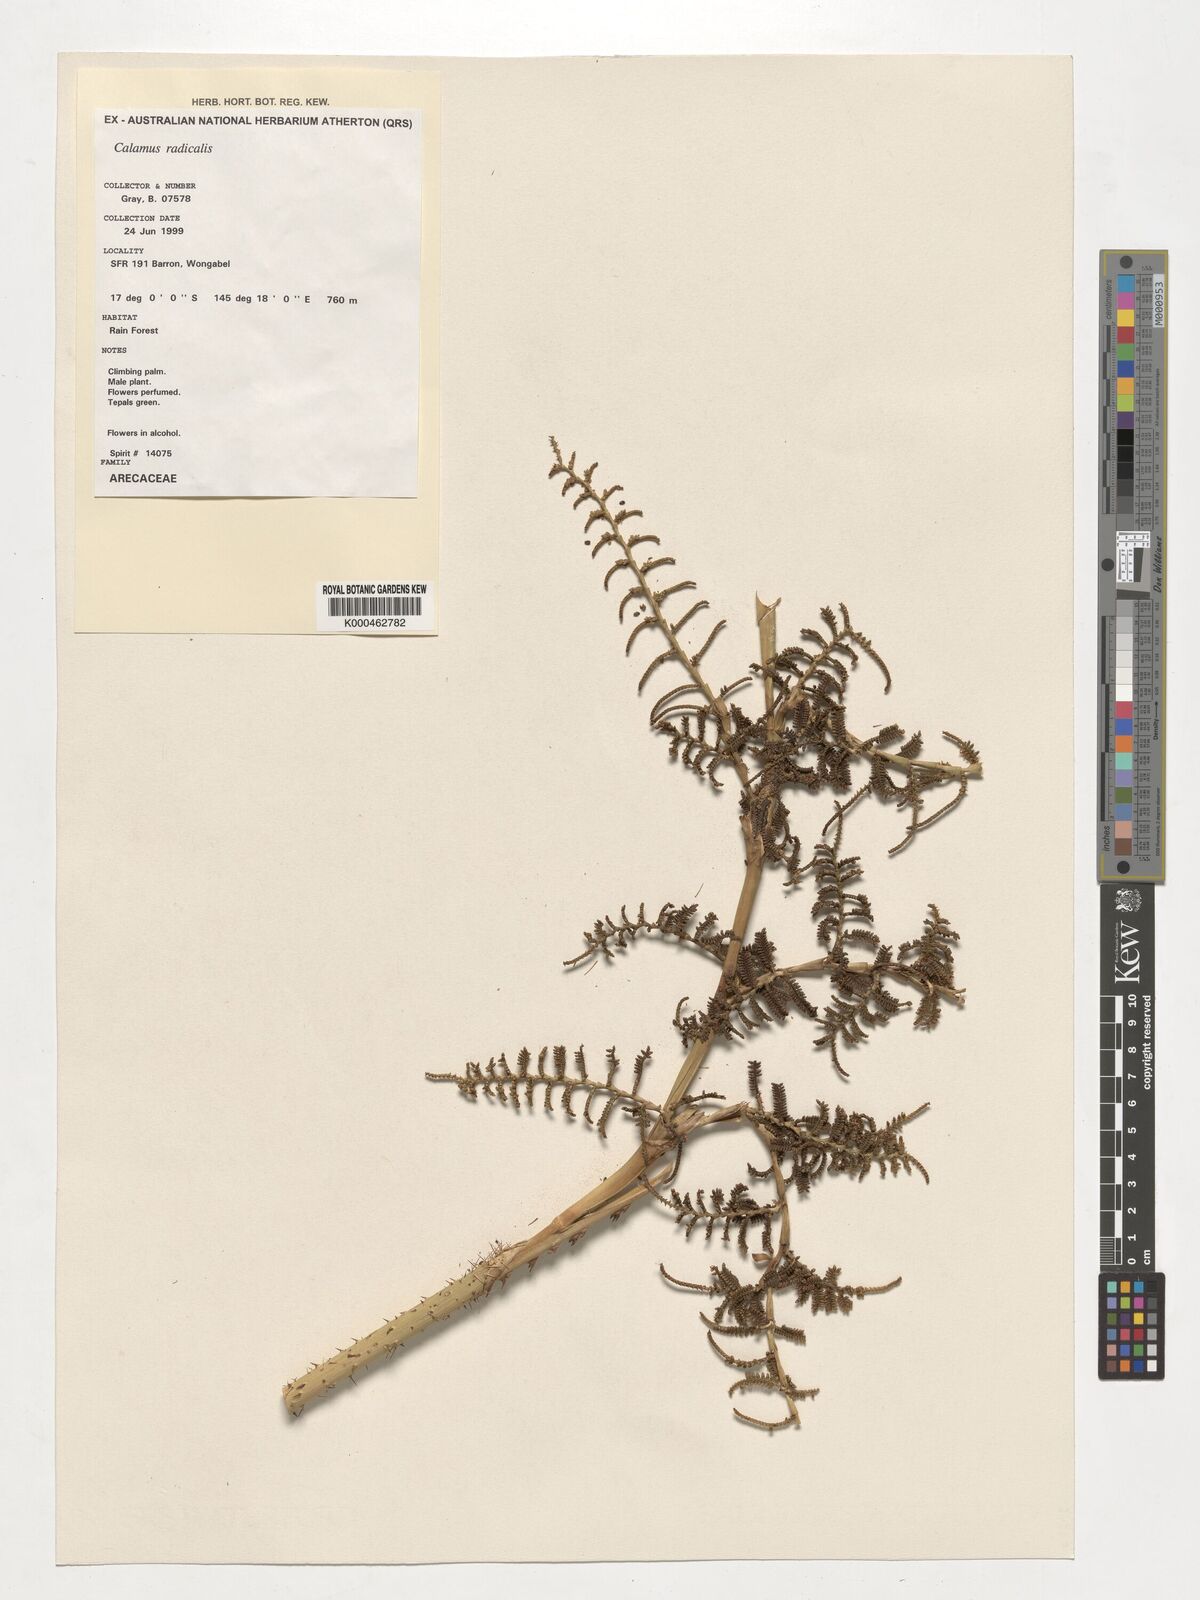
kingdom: Plantae
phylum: Tracheophyta
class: Liliopsida
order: Arecales
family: Arecaceae
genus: Calamus
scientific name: Calamus radicalis
